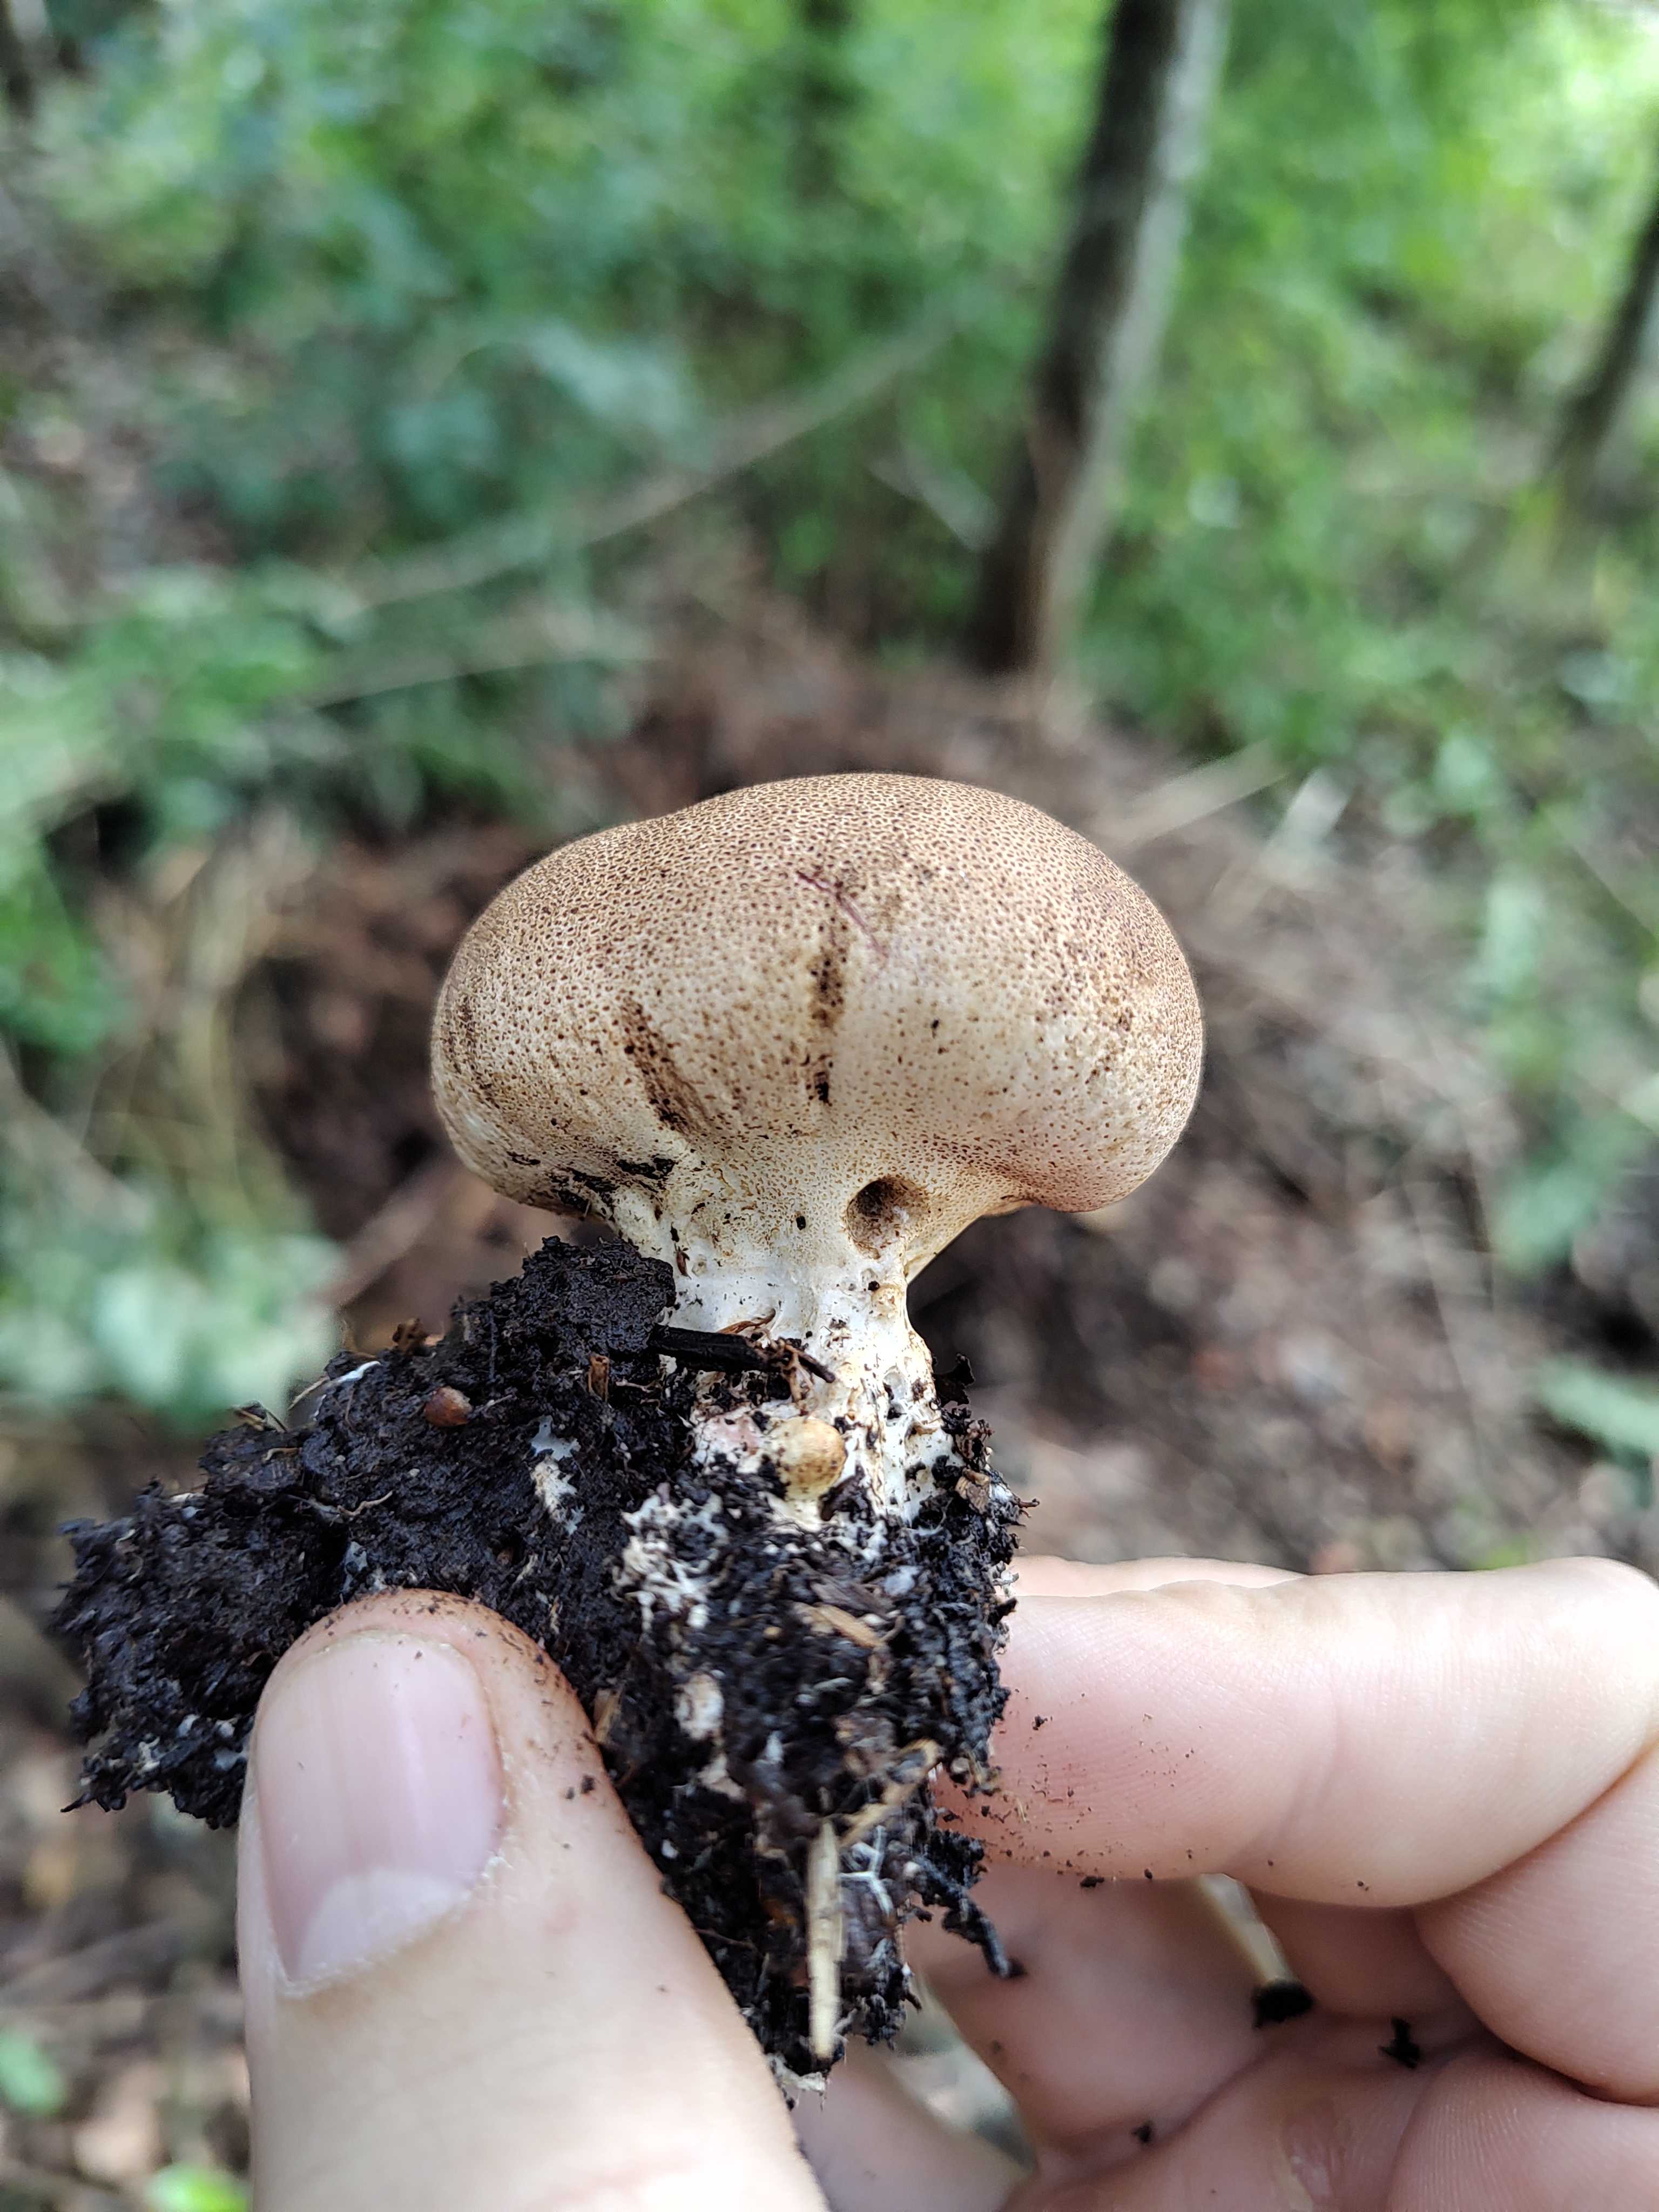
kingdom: Fungi
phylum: Basidiomycota
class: Agaricomycetes
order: Boletales
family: Sclerodermataceae
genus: Scleroderma
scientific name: Scleroderma verrucosum
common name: stilket bruskbold
